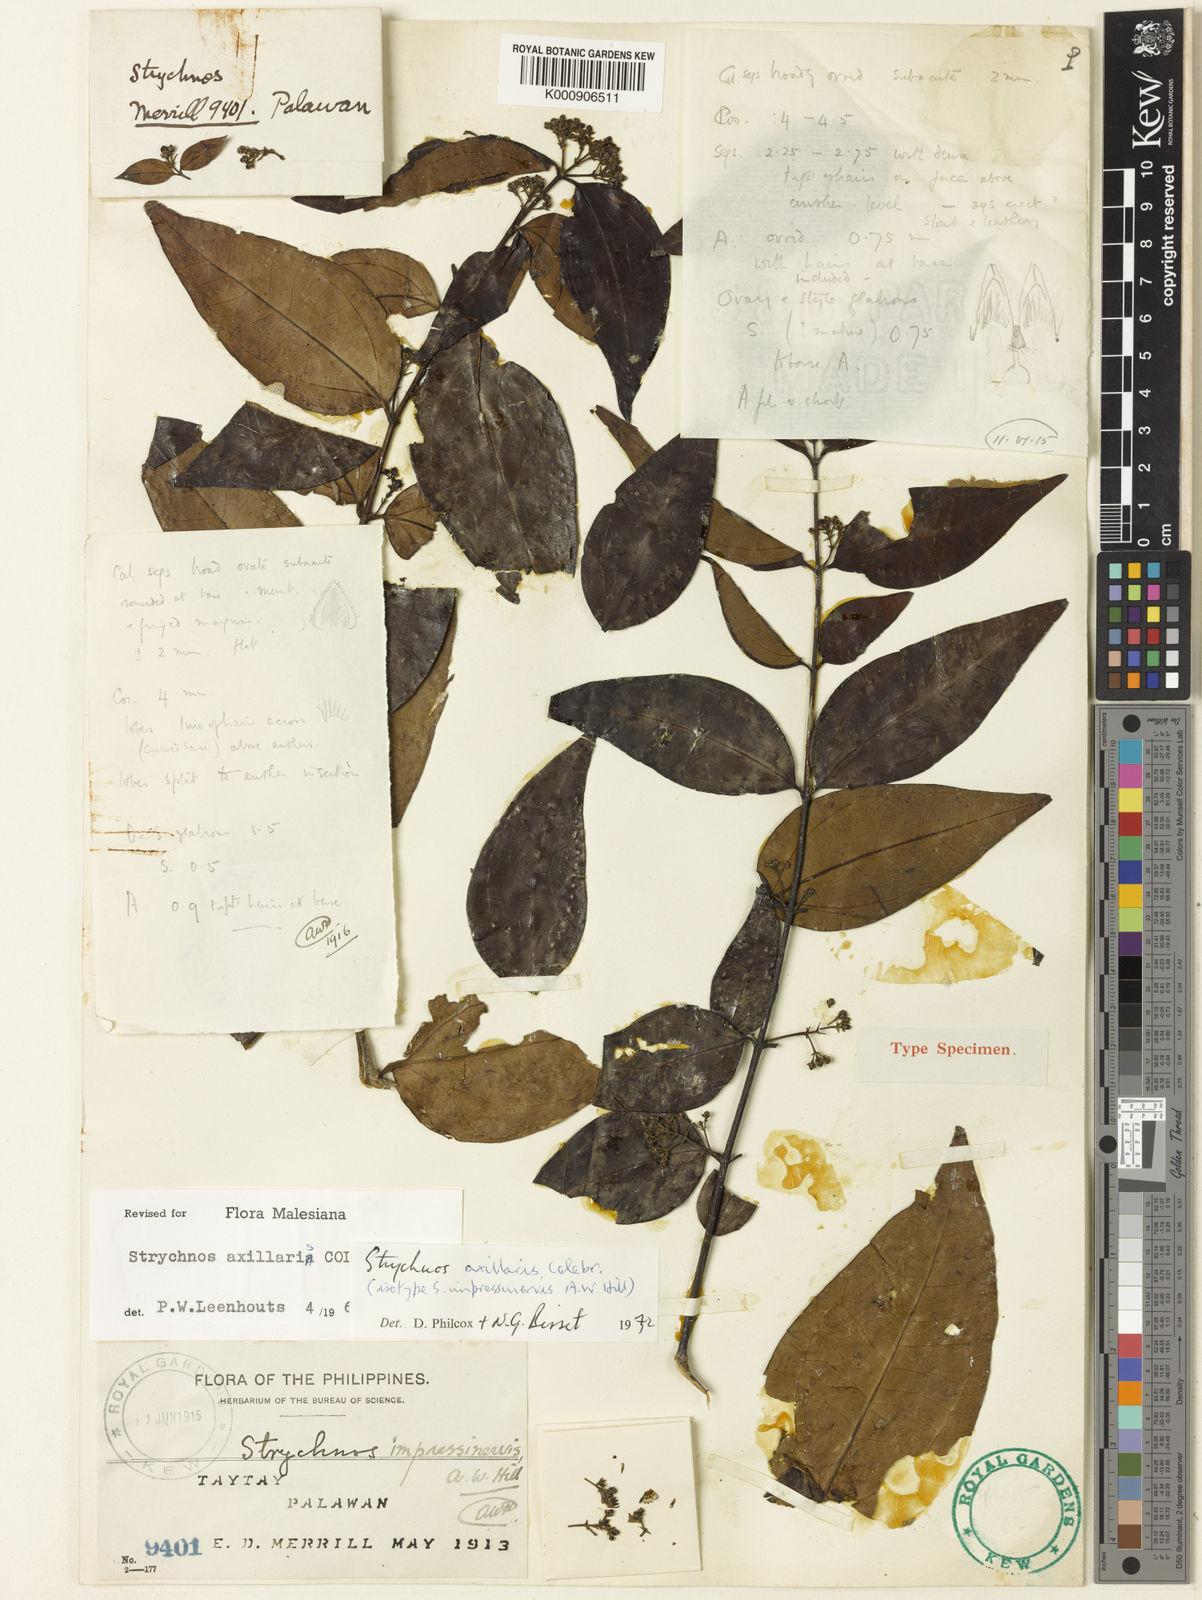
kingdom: Plantae
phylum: Tracheophyta
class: Magnoliopsida
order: Gentianales
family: Loganiaceae
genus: Strychnos
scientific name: Strychnos axillaris
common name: Strychninebush
